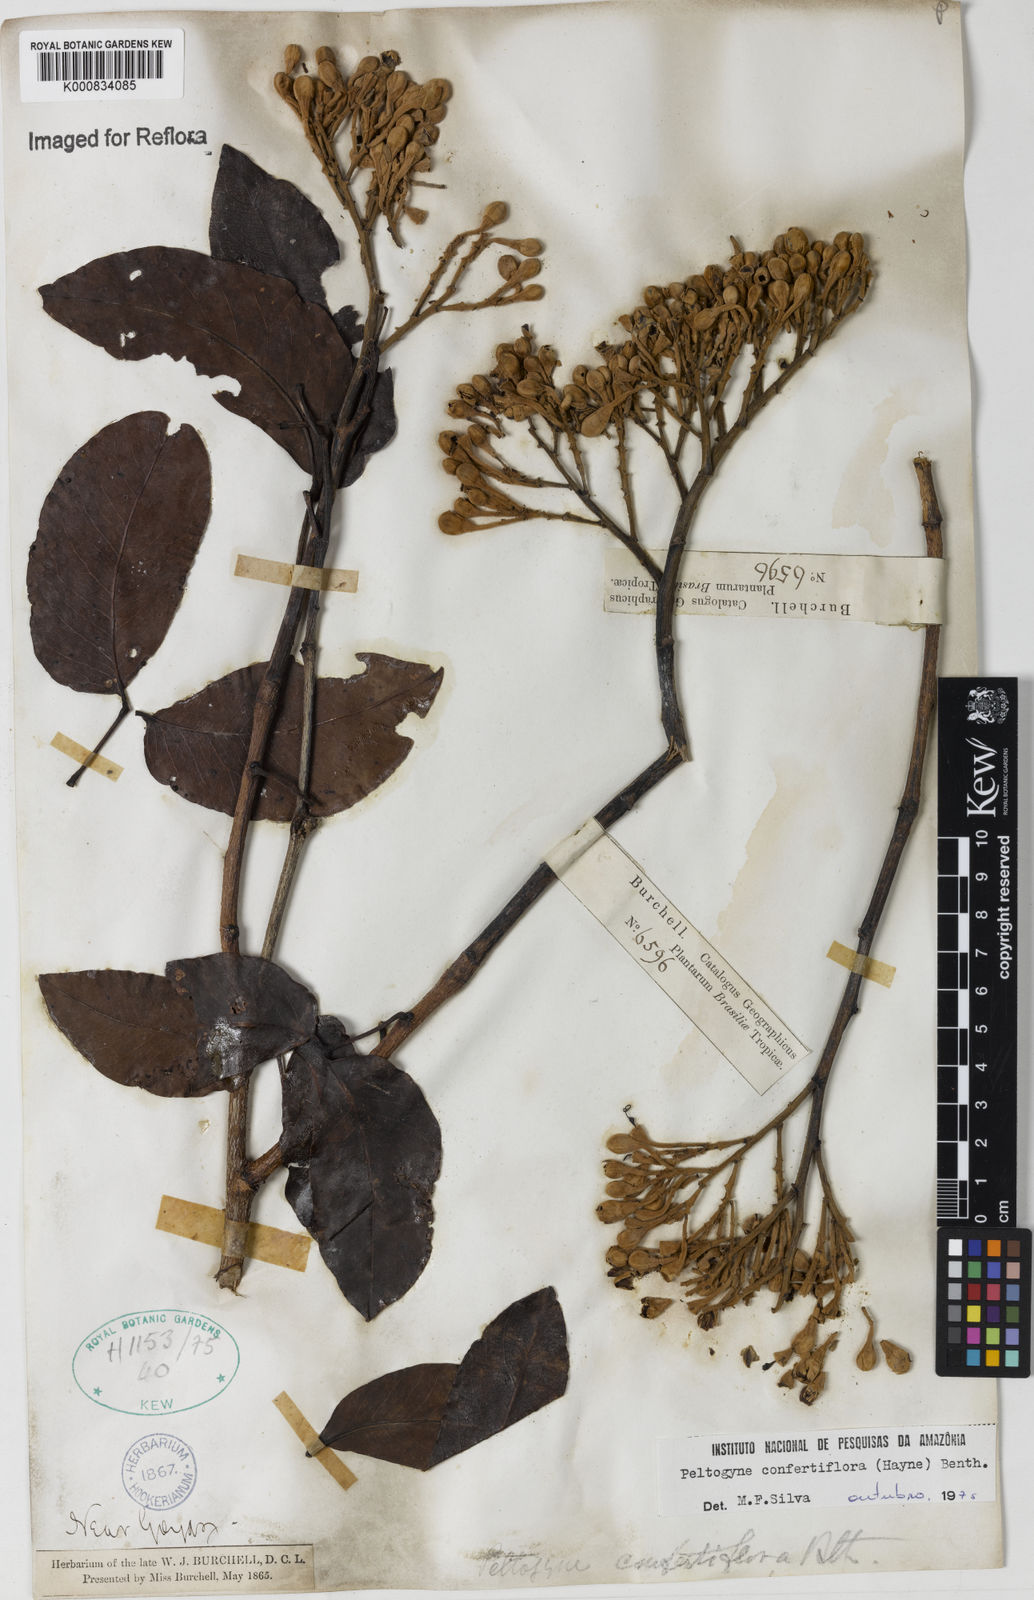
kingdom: Plantae
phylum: Tracheophyta
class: Magnoliopsida
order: Fabales
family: Fabaceae
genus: Peltogyne
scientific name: Peltogyne confertiflora
